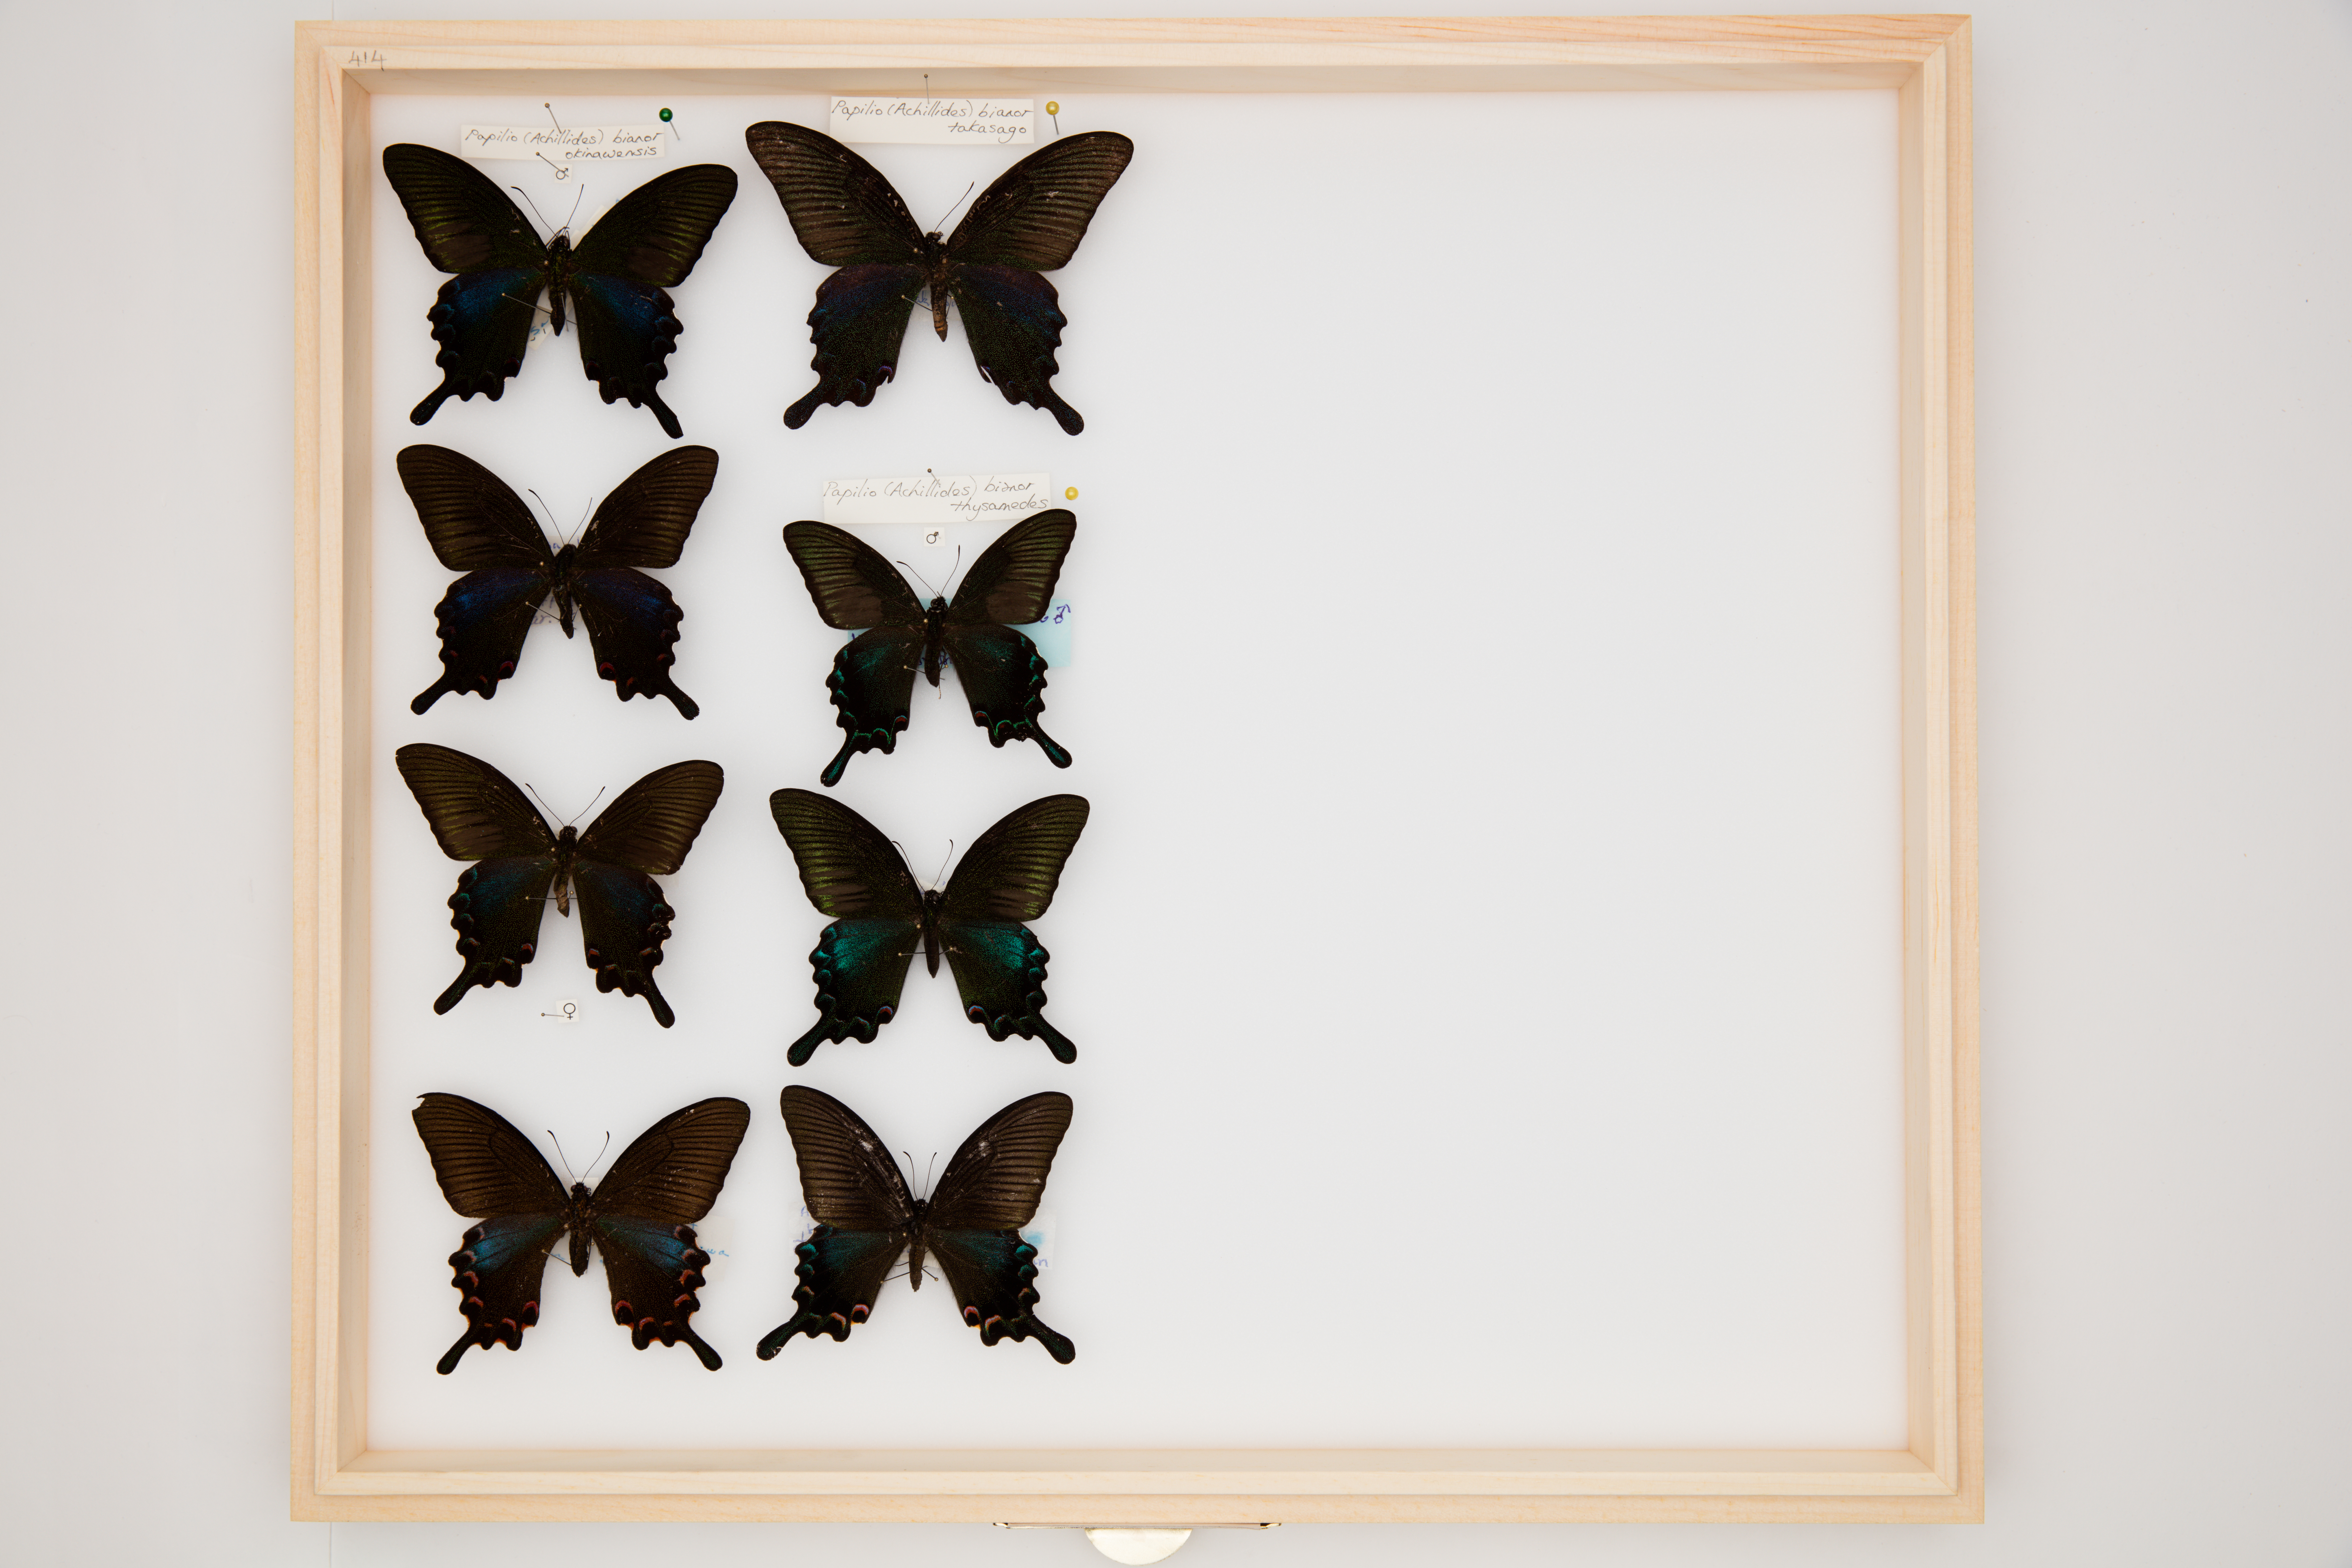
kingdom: Animalia
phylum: Arthropoda
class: Insecta
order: Lepidoptera
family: Papilionidae
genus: Papilio
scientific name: Papilio bianor
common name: Common peacock
